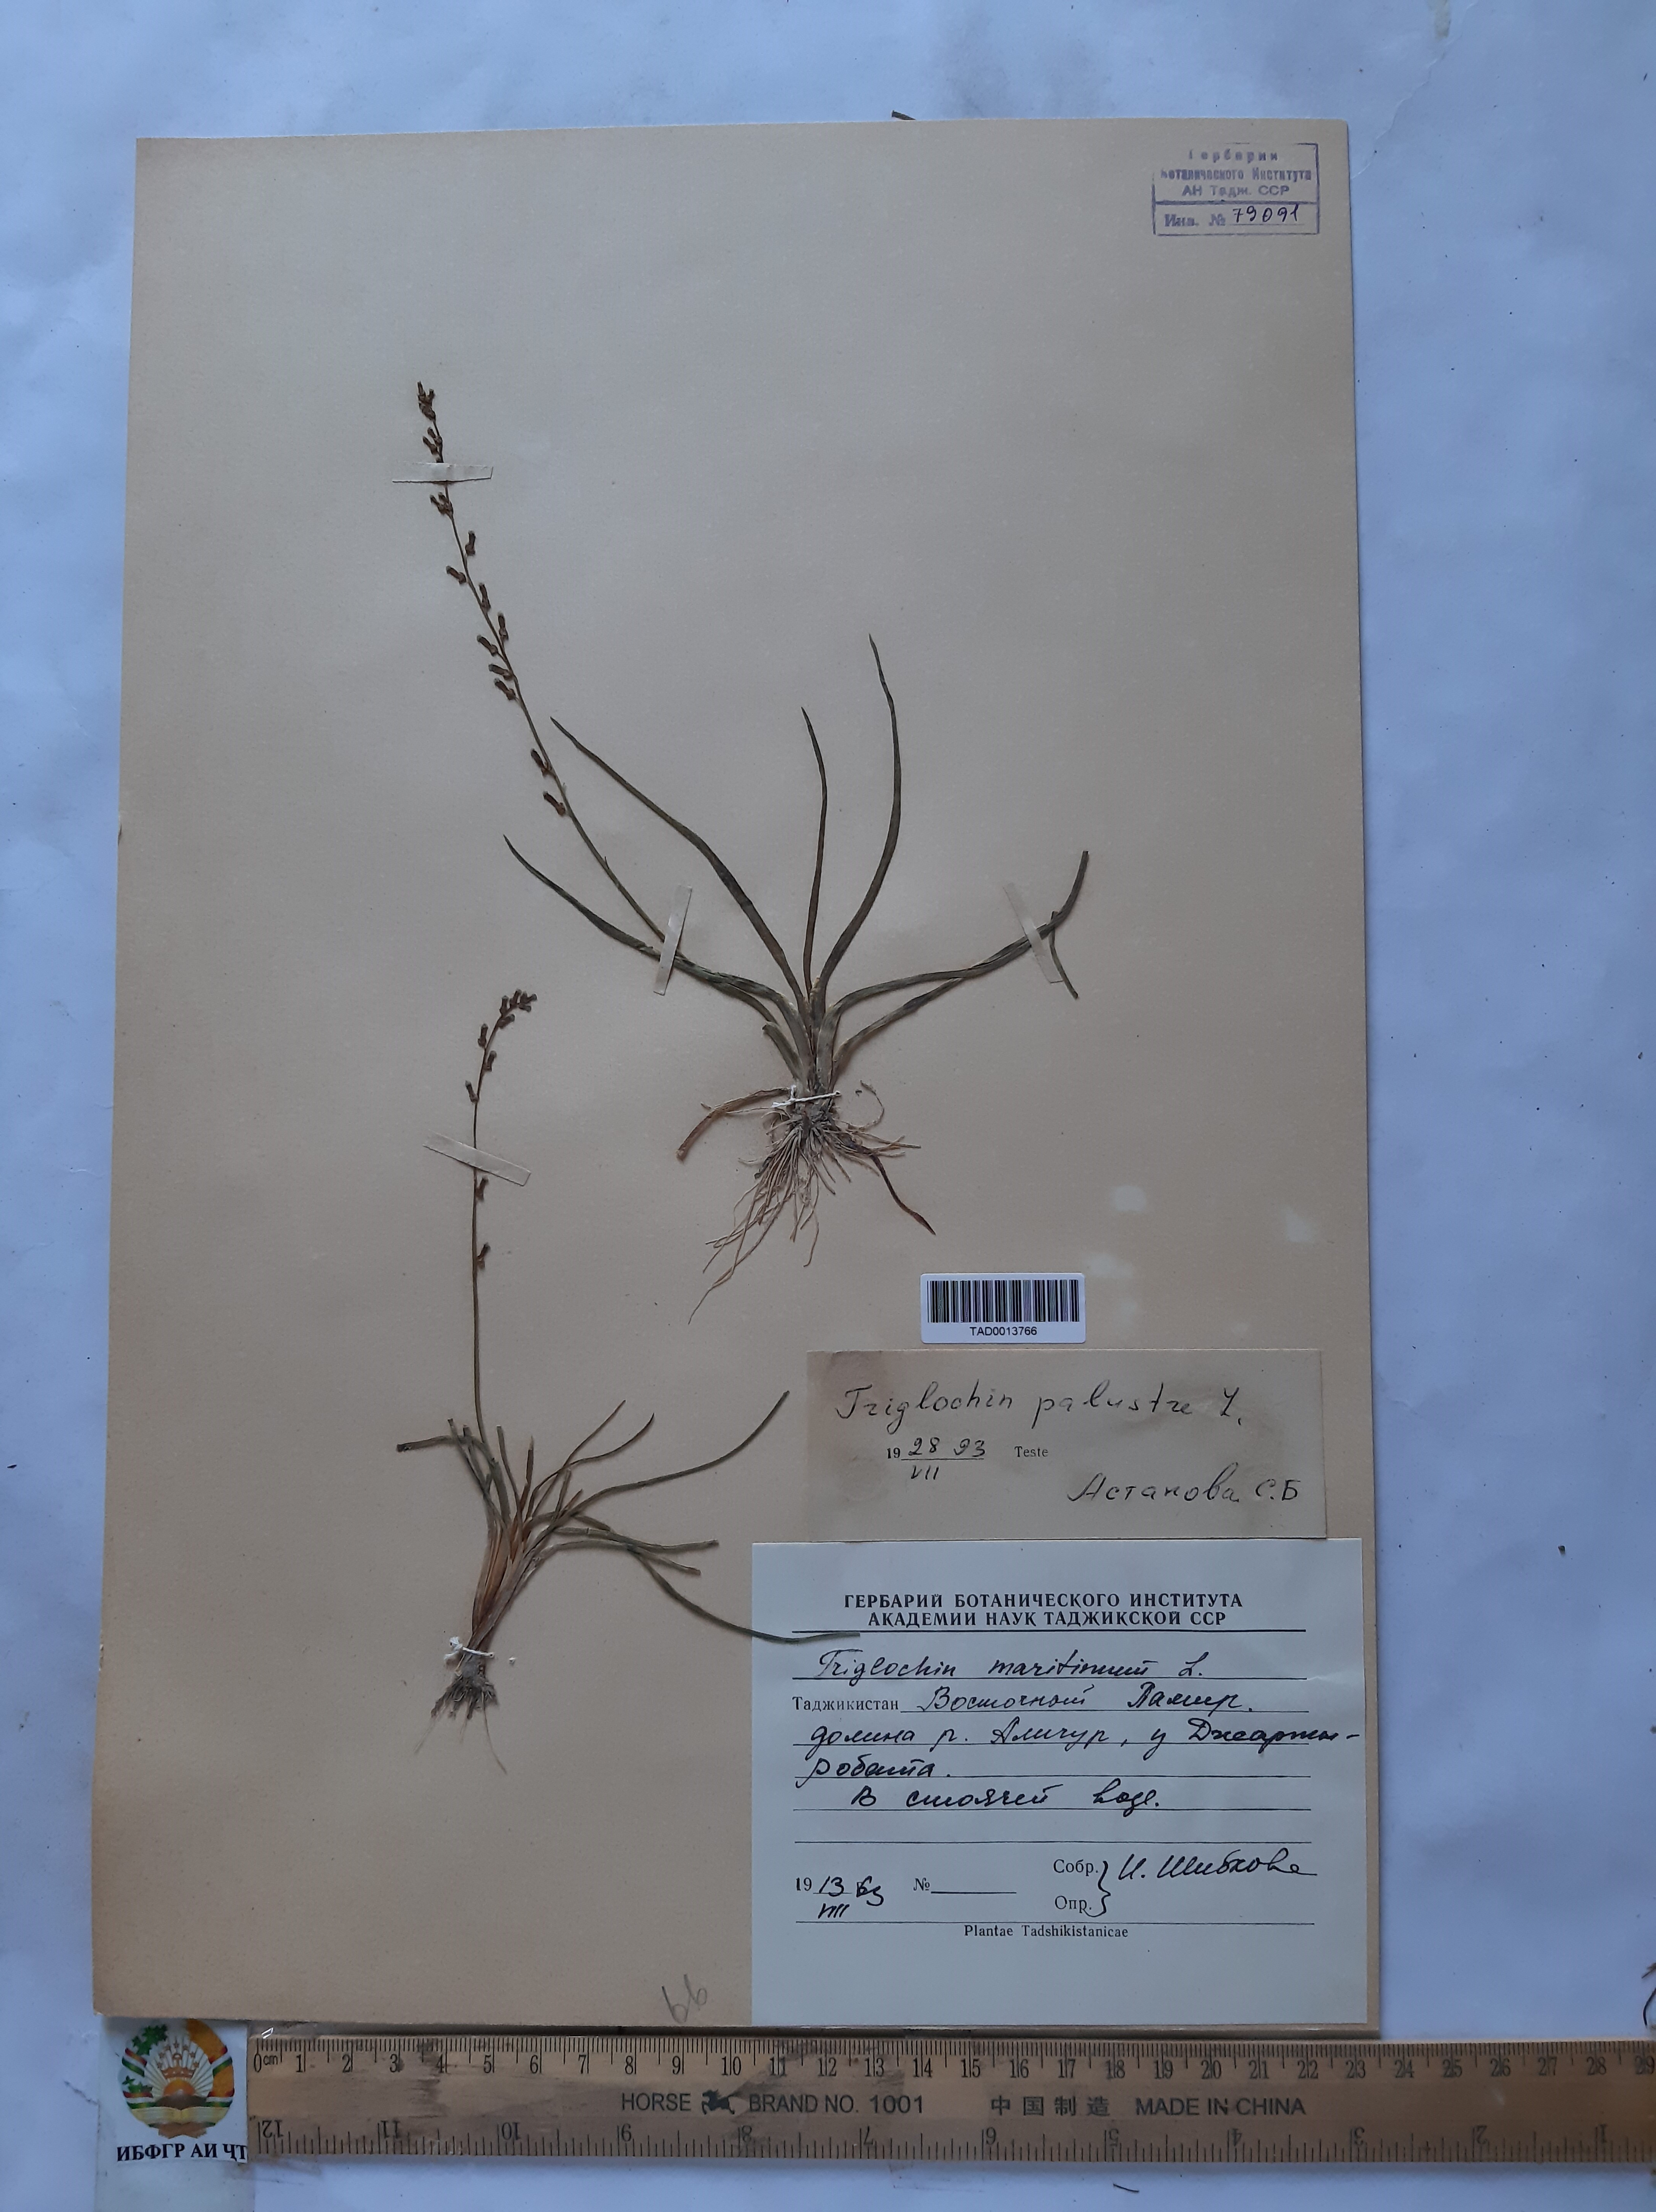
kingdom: Plantae
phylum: Tracheophyta
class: Liliopsida
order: Alismatales
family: Juncaginaceae
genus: Triglochin
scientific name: Triglochin maritima
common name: Sea arrowgrass
